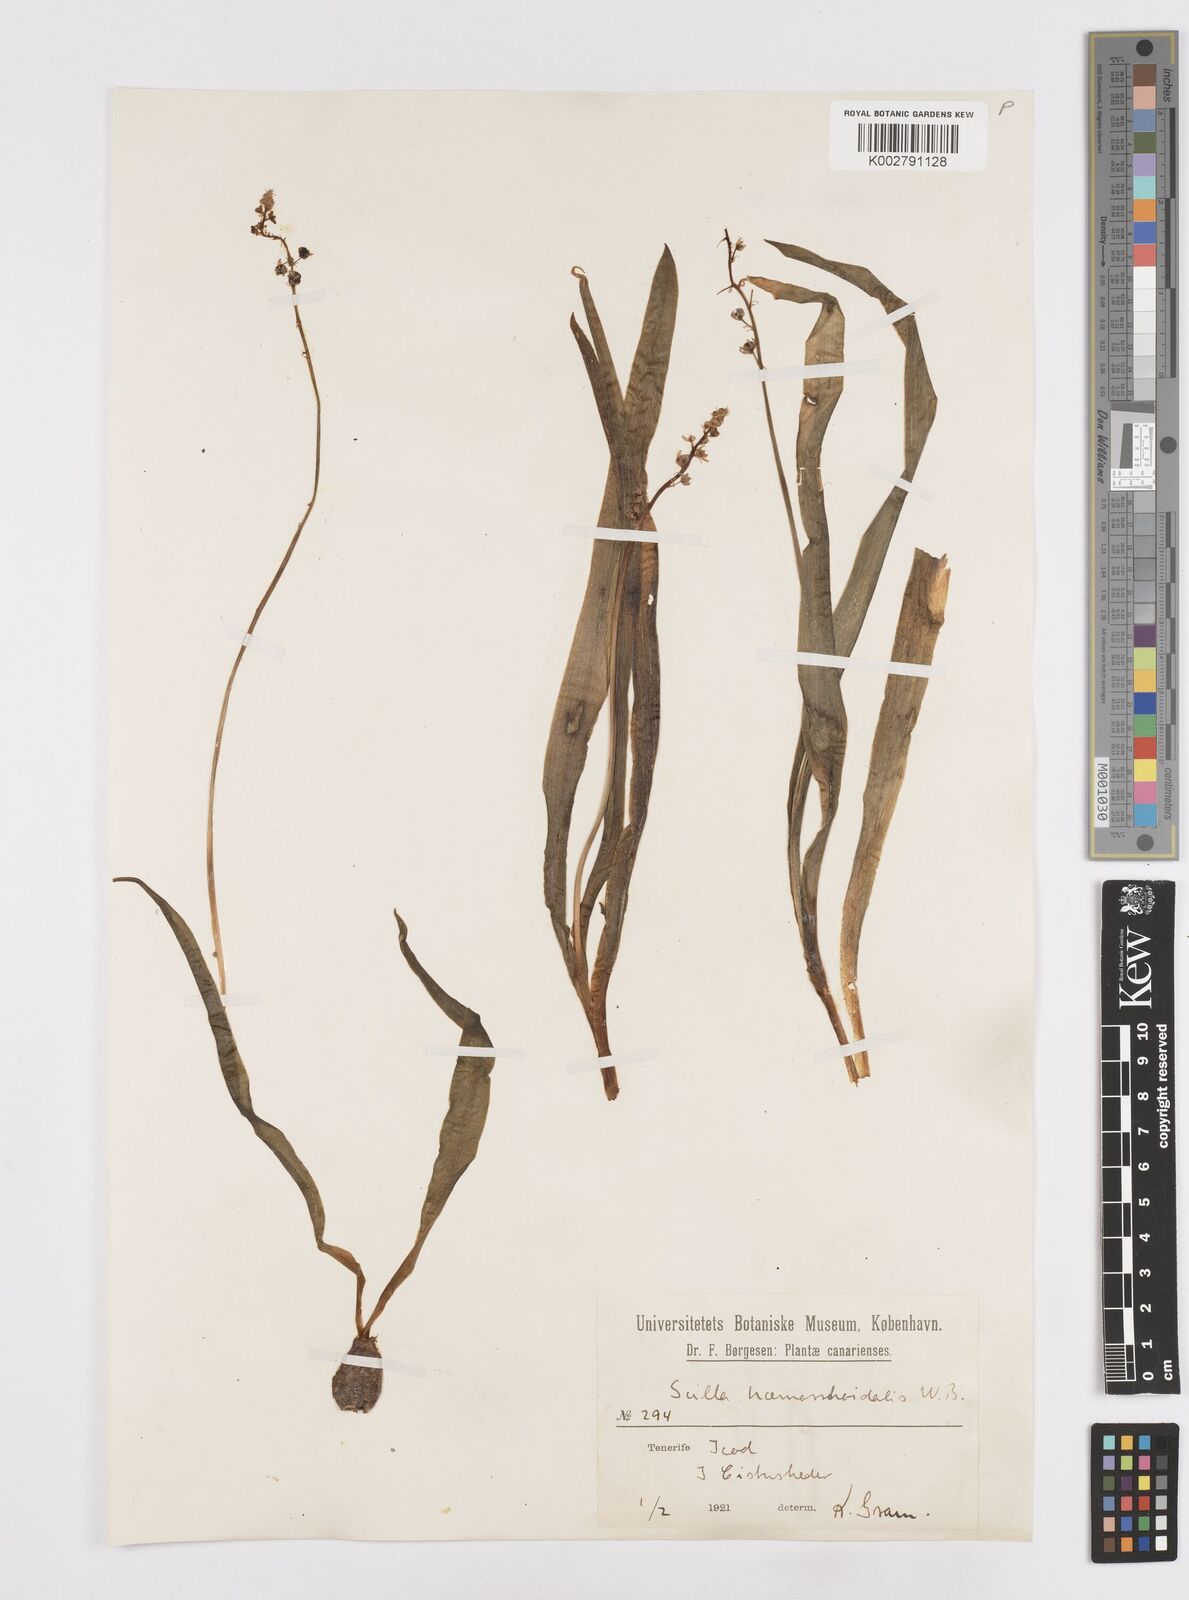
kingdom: Plantae
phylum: Tracheophyta
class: Liliopsida
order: Asparagales
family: Asparagaceae
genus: Scilla
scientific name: Scilla haemorrhoidalis
